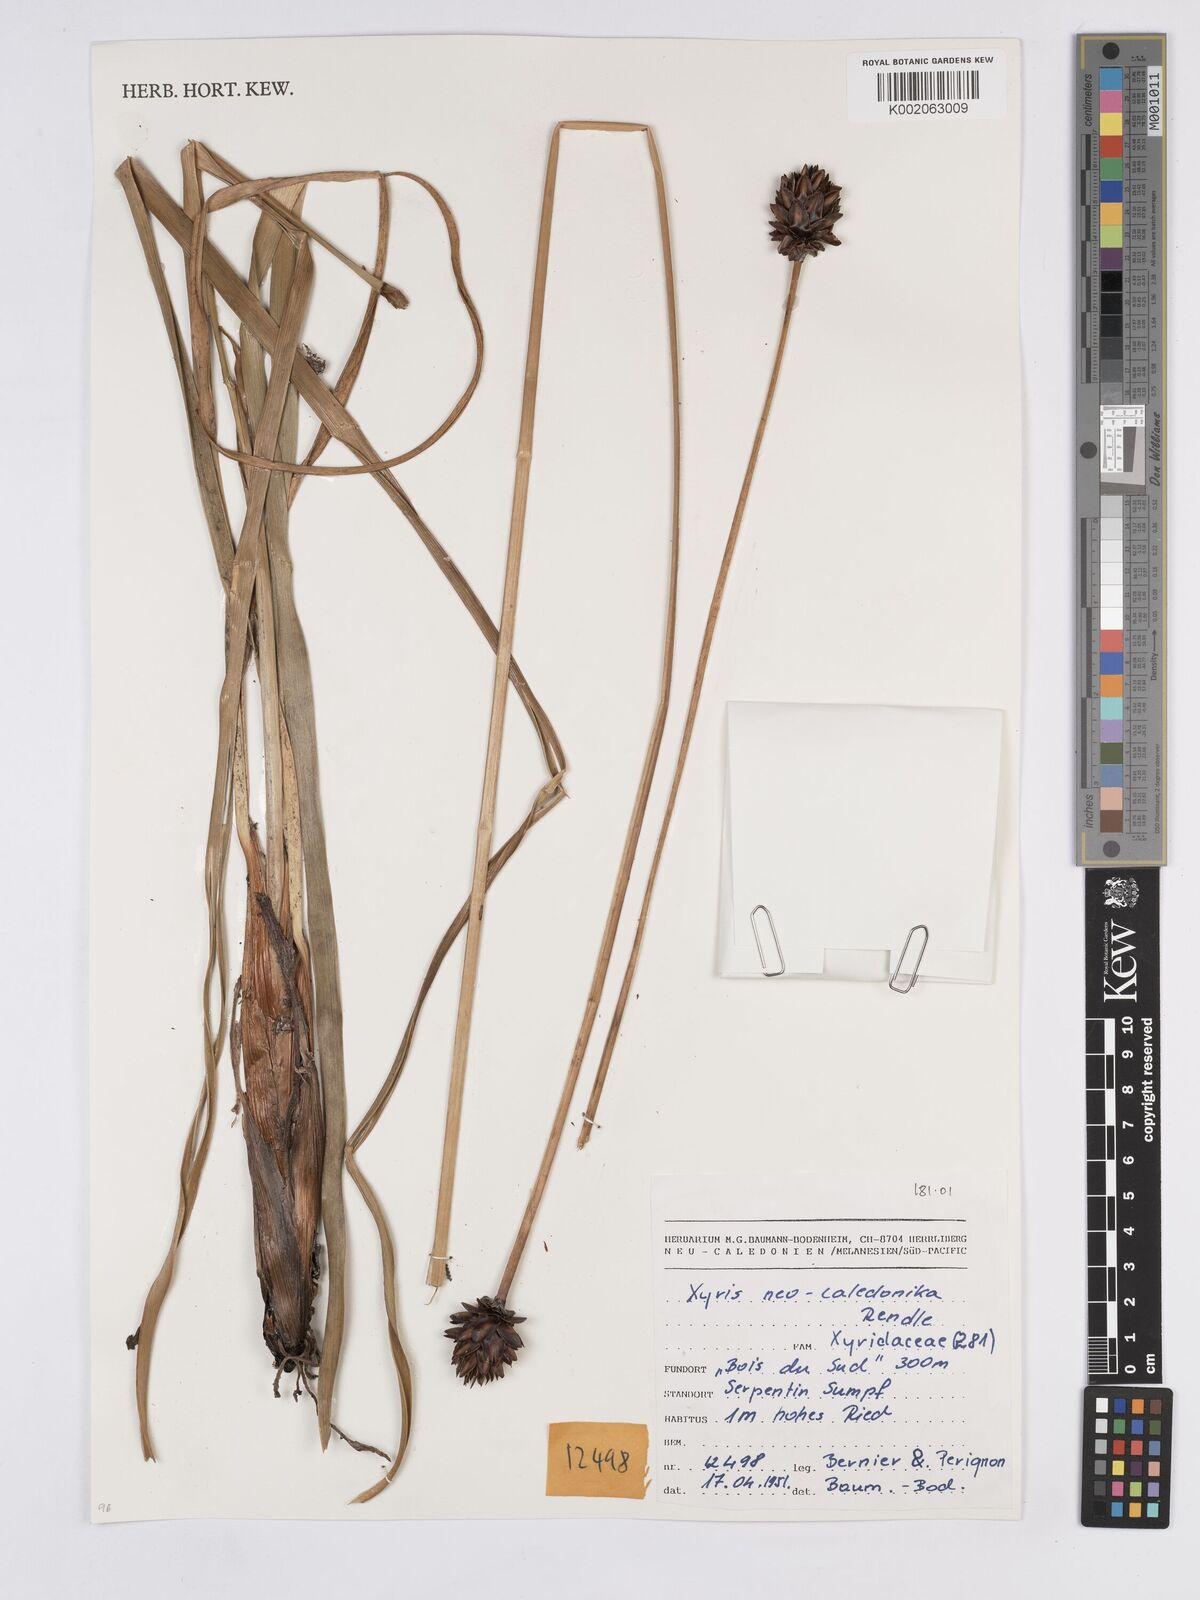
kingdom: Plantae
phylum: Tracheophyta
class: Liliopsida
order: Poales
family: Xyridaceae
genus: Xyris
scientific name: Xyris neocaledonica
